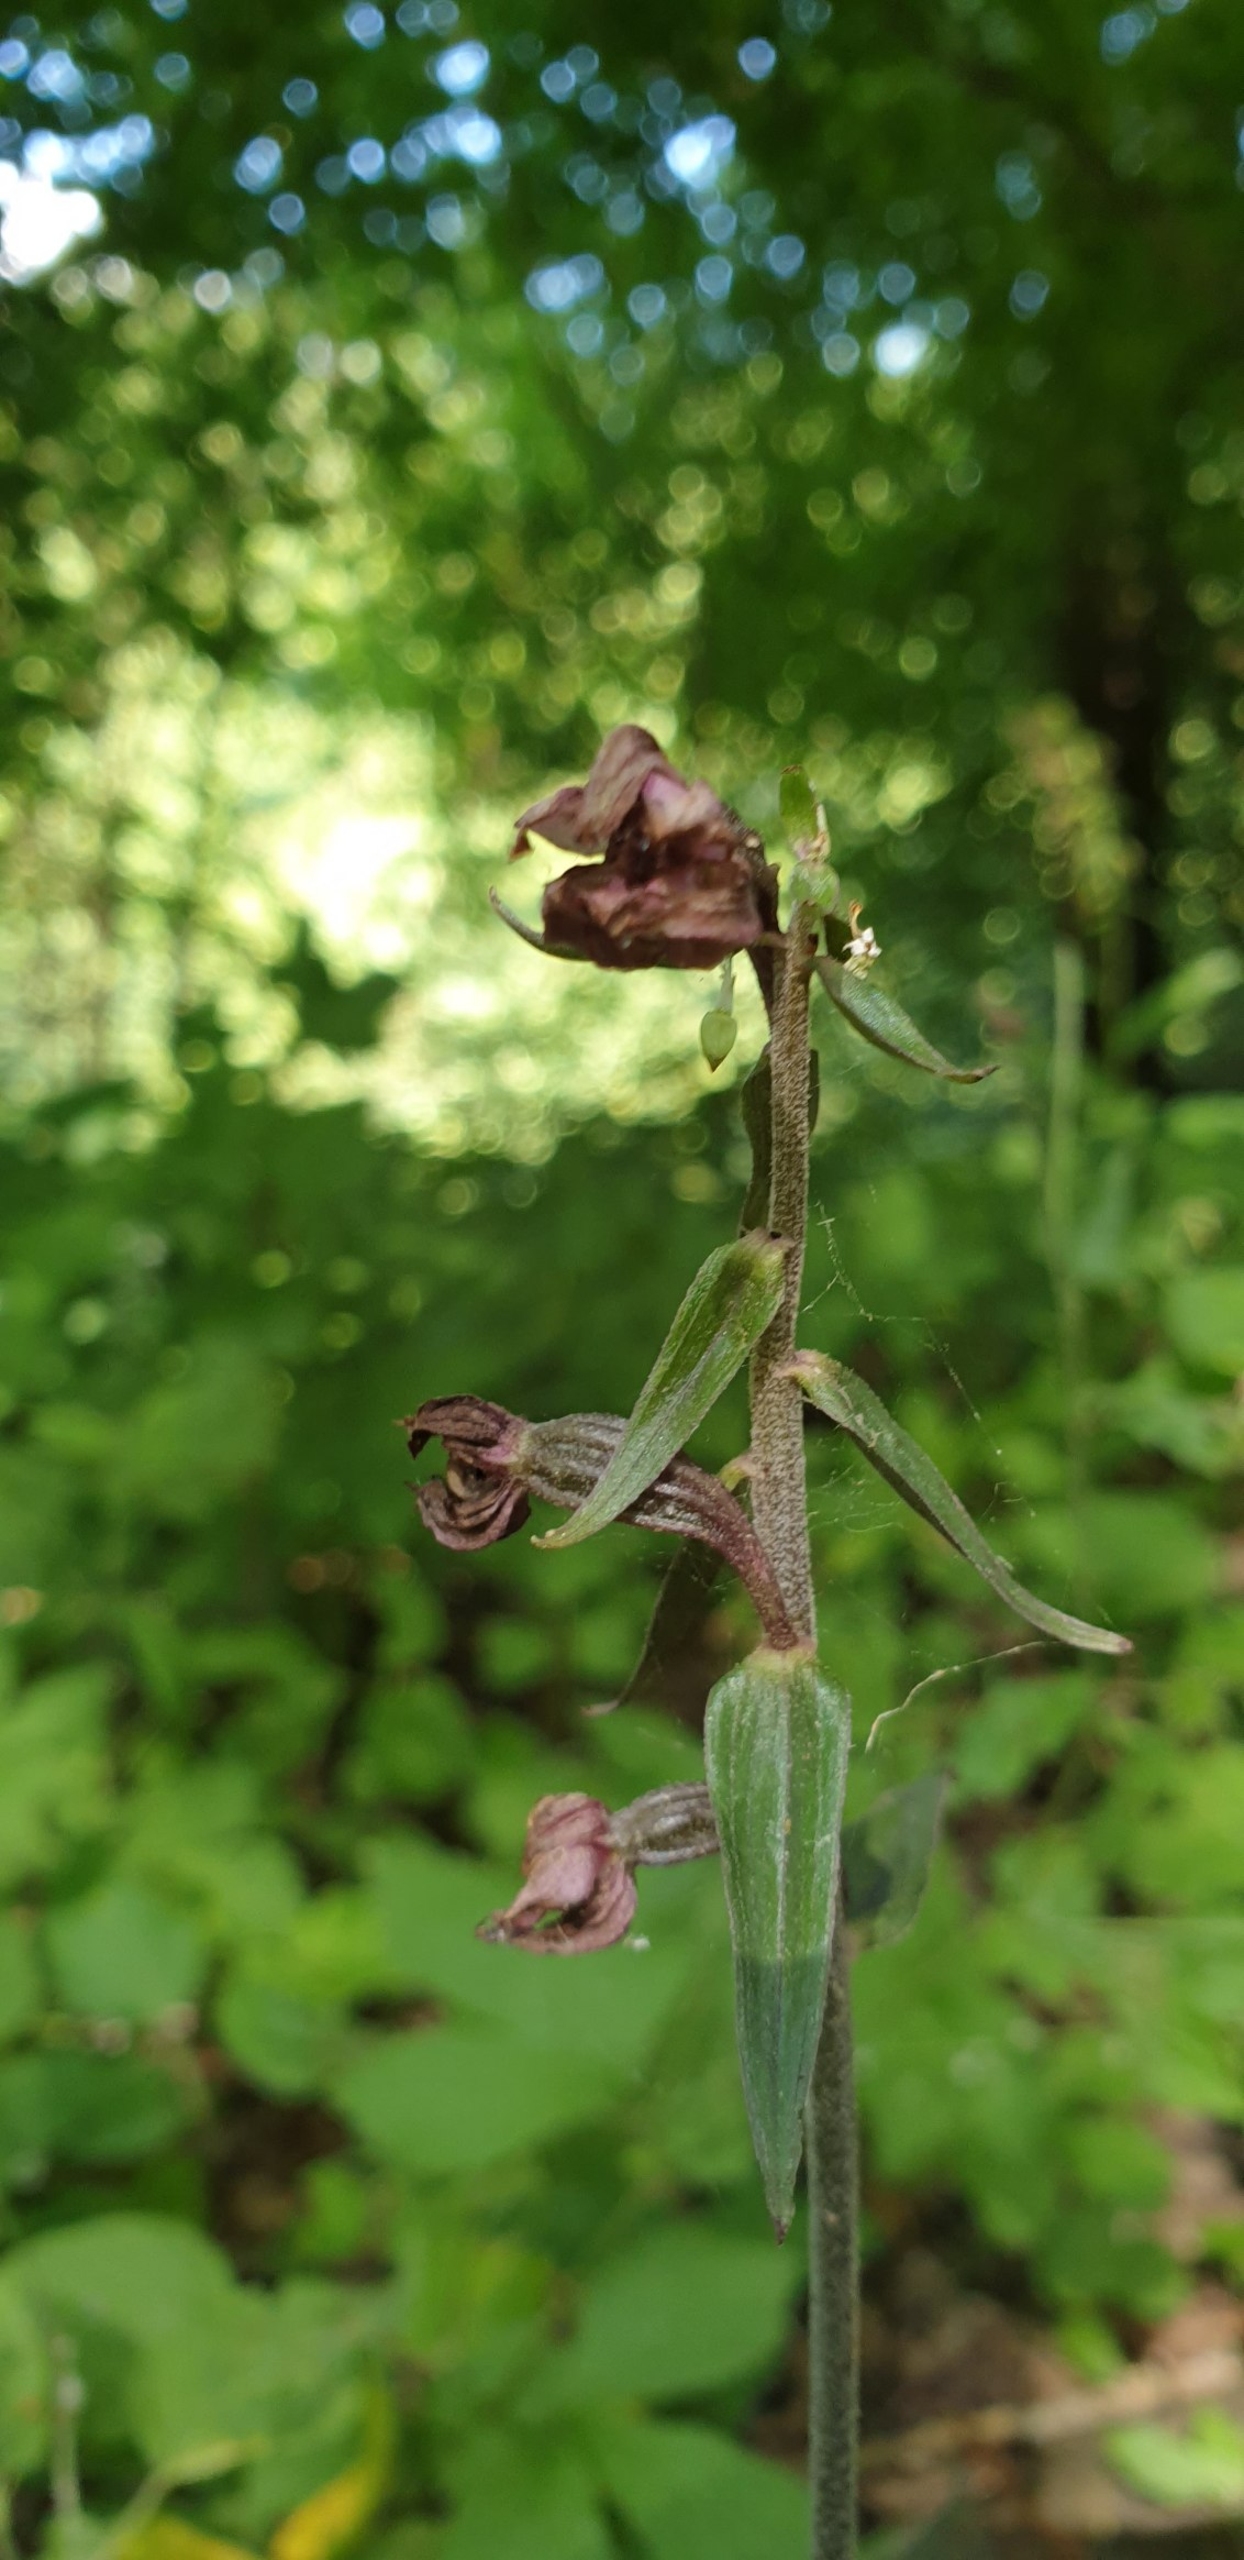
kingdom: Plantae
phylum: Tracheophyta
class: Liliopsida
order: Asparagales
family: Orchidaceae
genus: Epipactis
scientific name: Epipactis helleborine
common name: Skov-hullæbe
